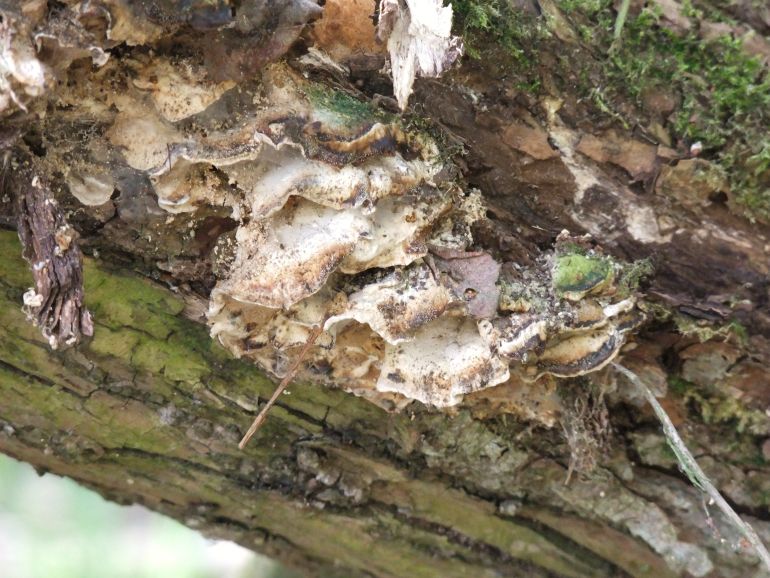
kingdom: Fungi
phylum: Basidiomycota
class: Agaricomycetes
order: Polyporales
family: Phanerochaetaceae
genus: Bjerkandera
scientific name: Bjerkandera fumosa
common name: grågul sodporesvamp
